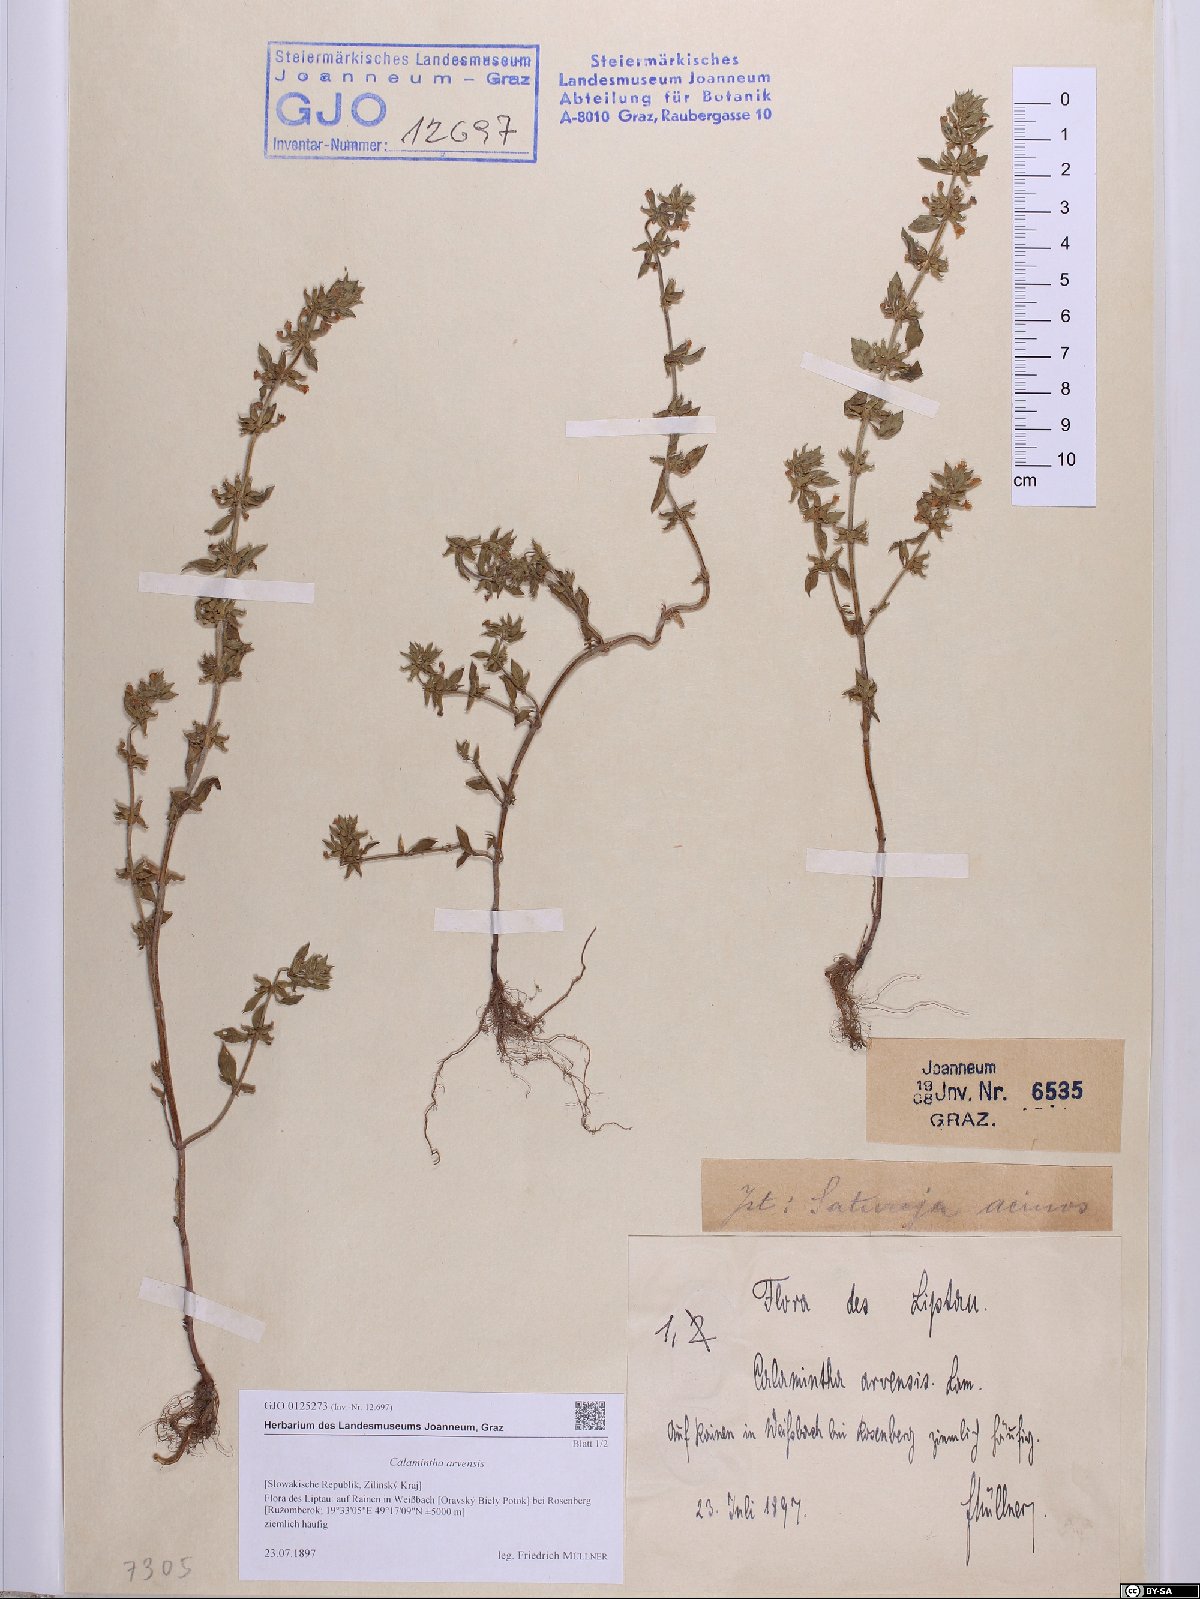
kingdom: Plantae
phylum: Tracheophyta
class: Magnoliopsida
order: Lamiales
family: Lamiaceae
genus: Clinopodium
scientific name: Clinopodium acinos
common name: Basil thyme
